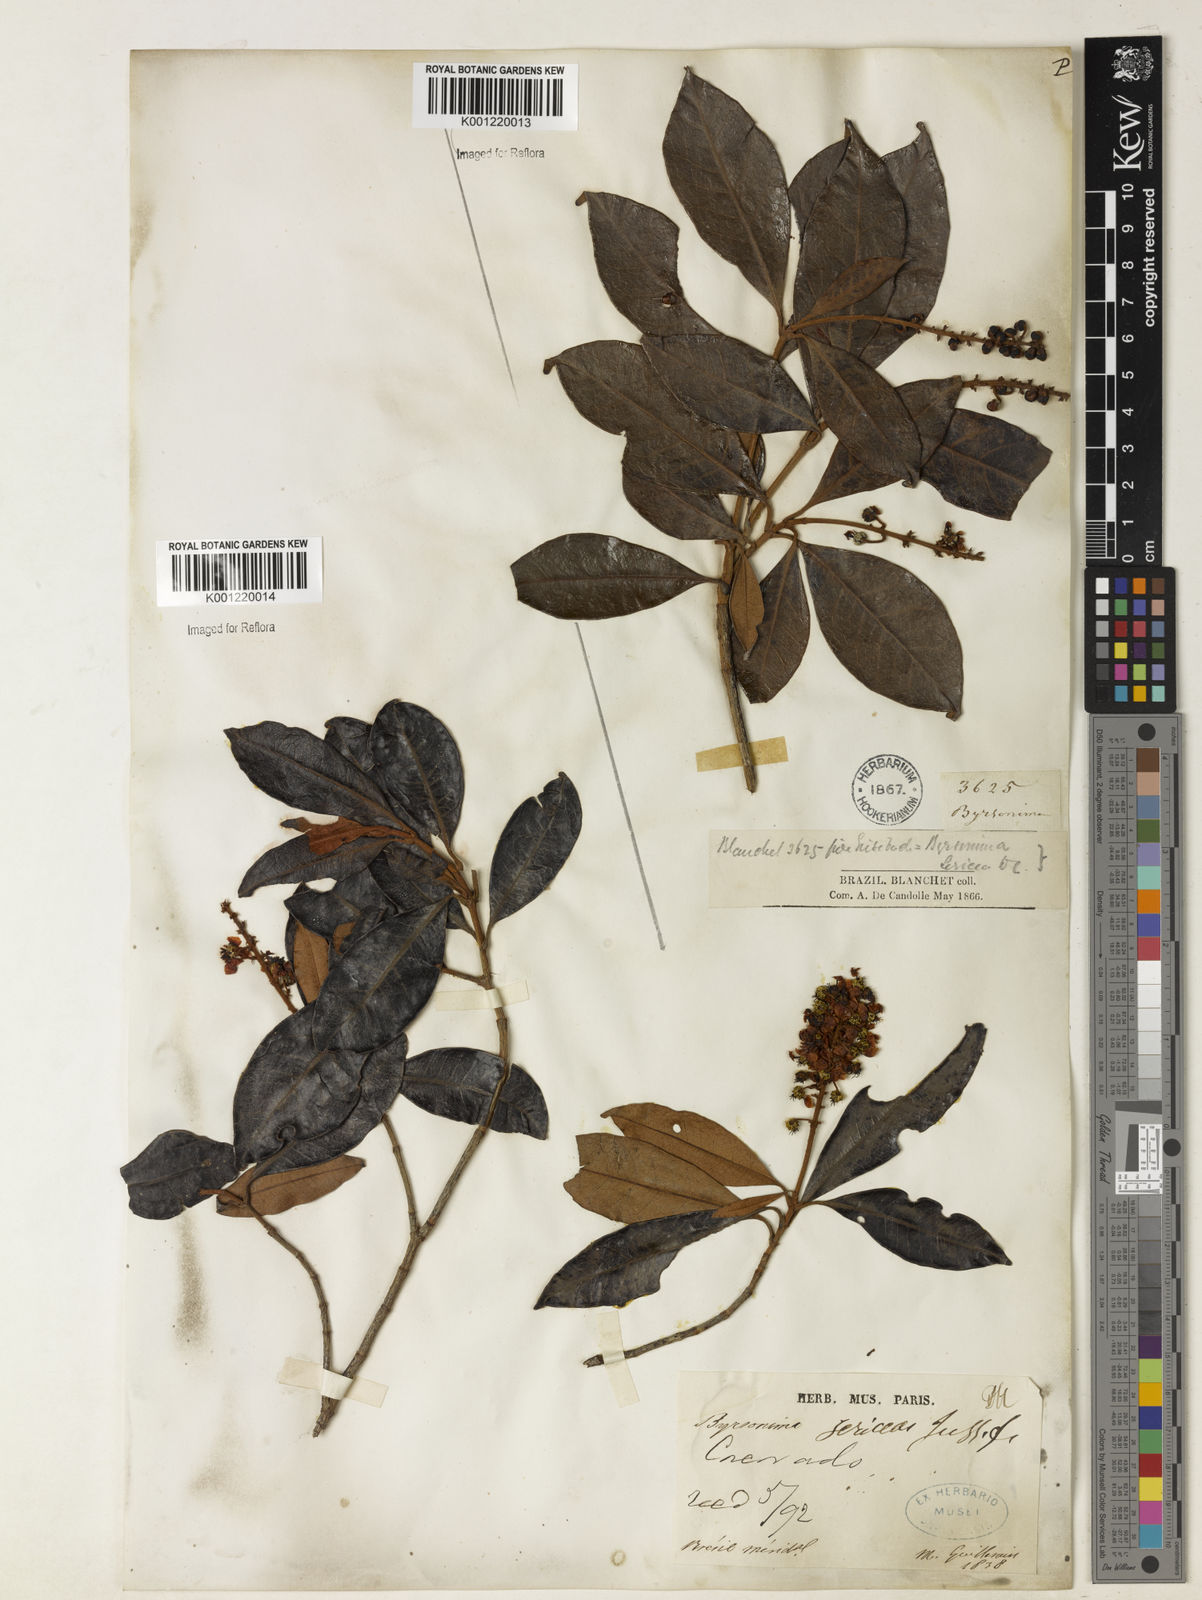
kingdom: Plantae
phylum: Tracheophyta
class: Magnoliopsida
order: Malpighiales
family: Malpighiaceae
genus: Byrsonima
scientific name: Byrsonima sericea
